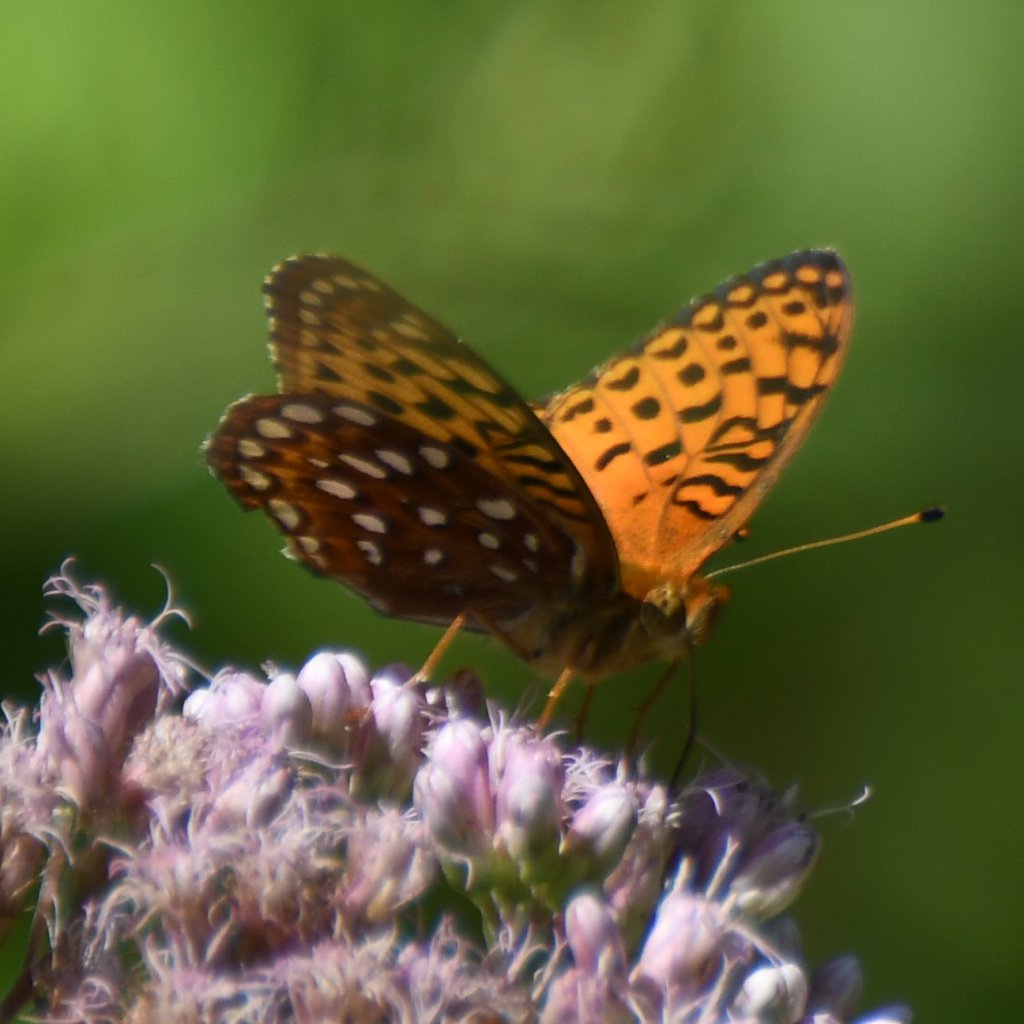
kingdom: Animalia
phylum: Arthropoda
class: Insecta
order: Lepidoptera
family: Nymphalidae
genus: Speyeria
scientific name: Speyeria aphrodite
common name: Aphrodite Fritillary
